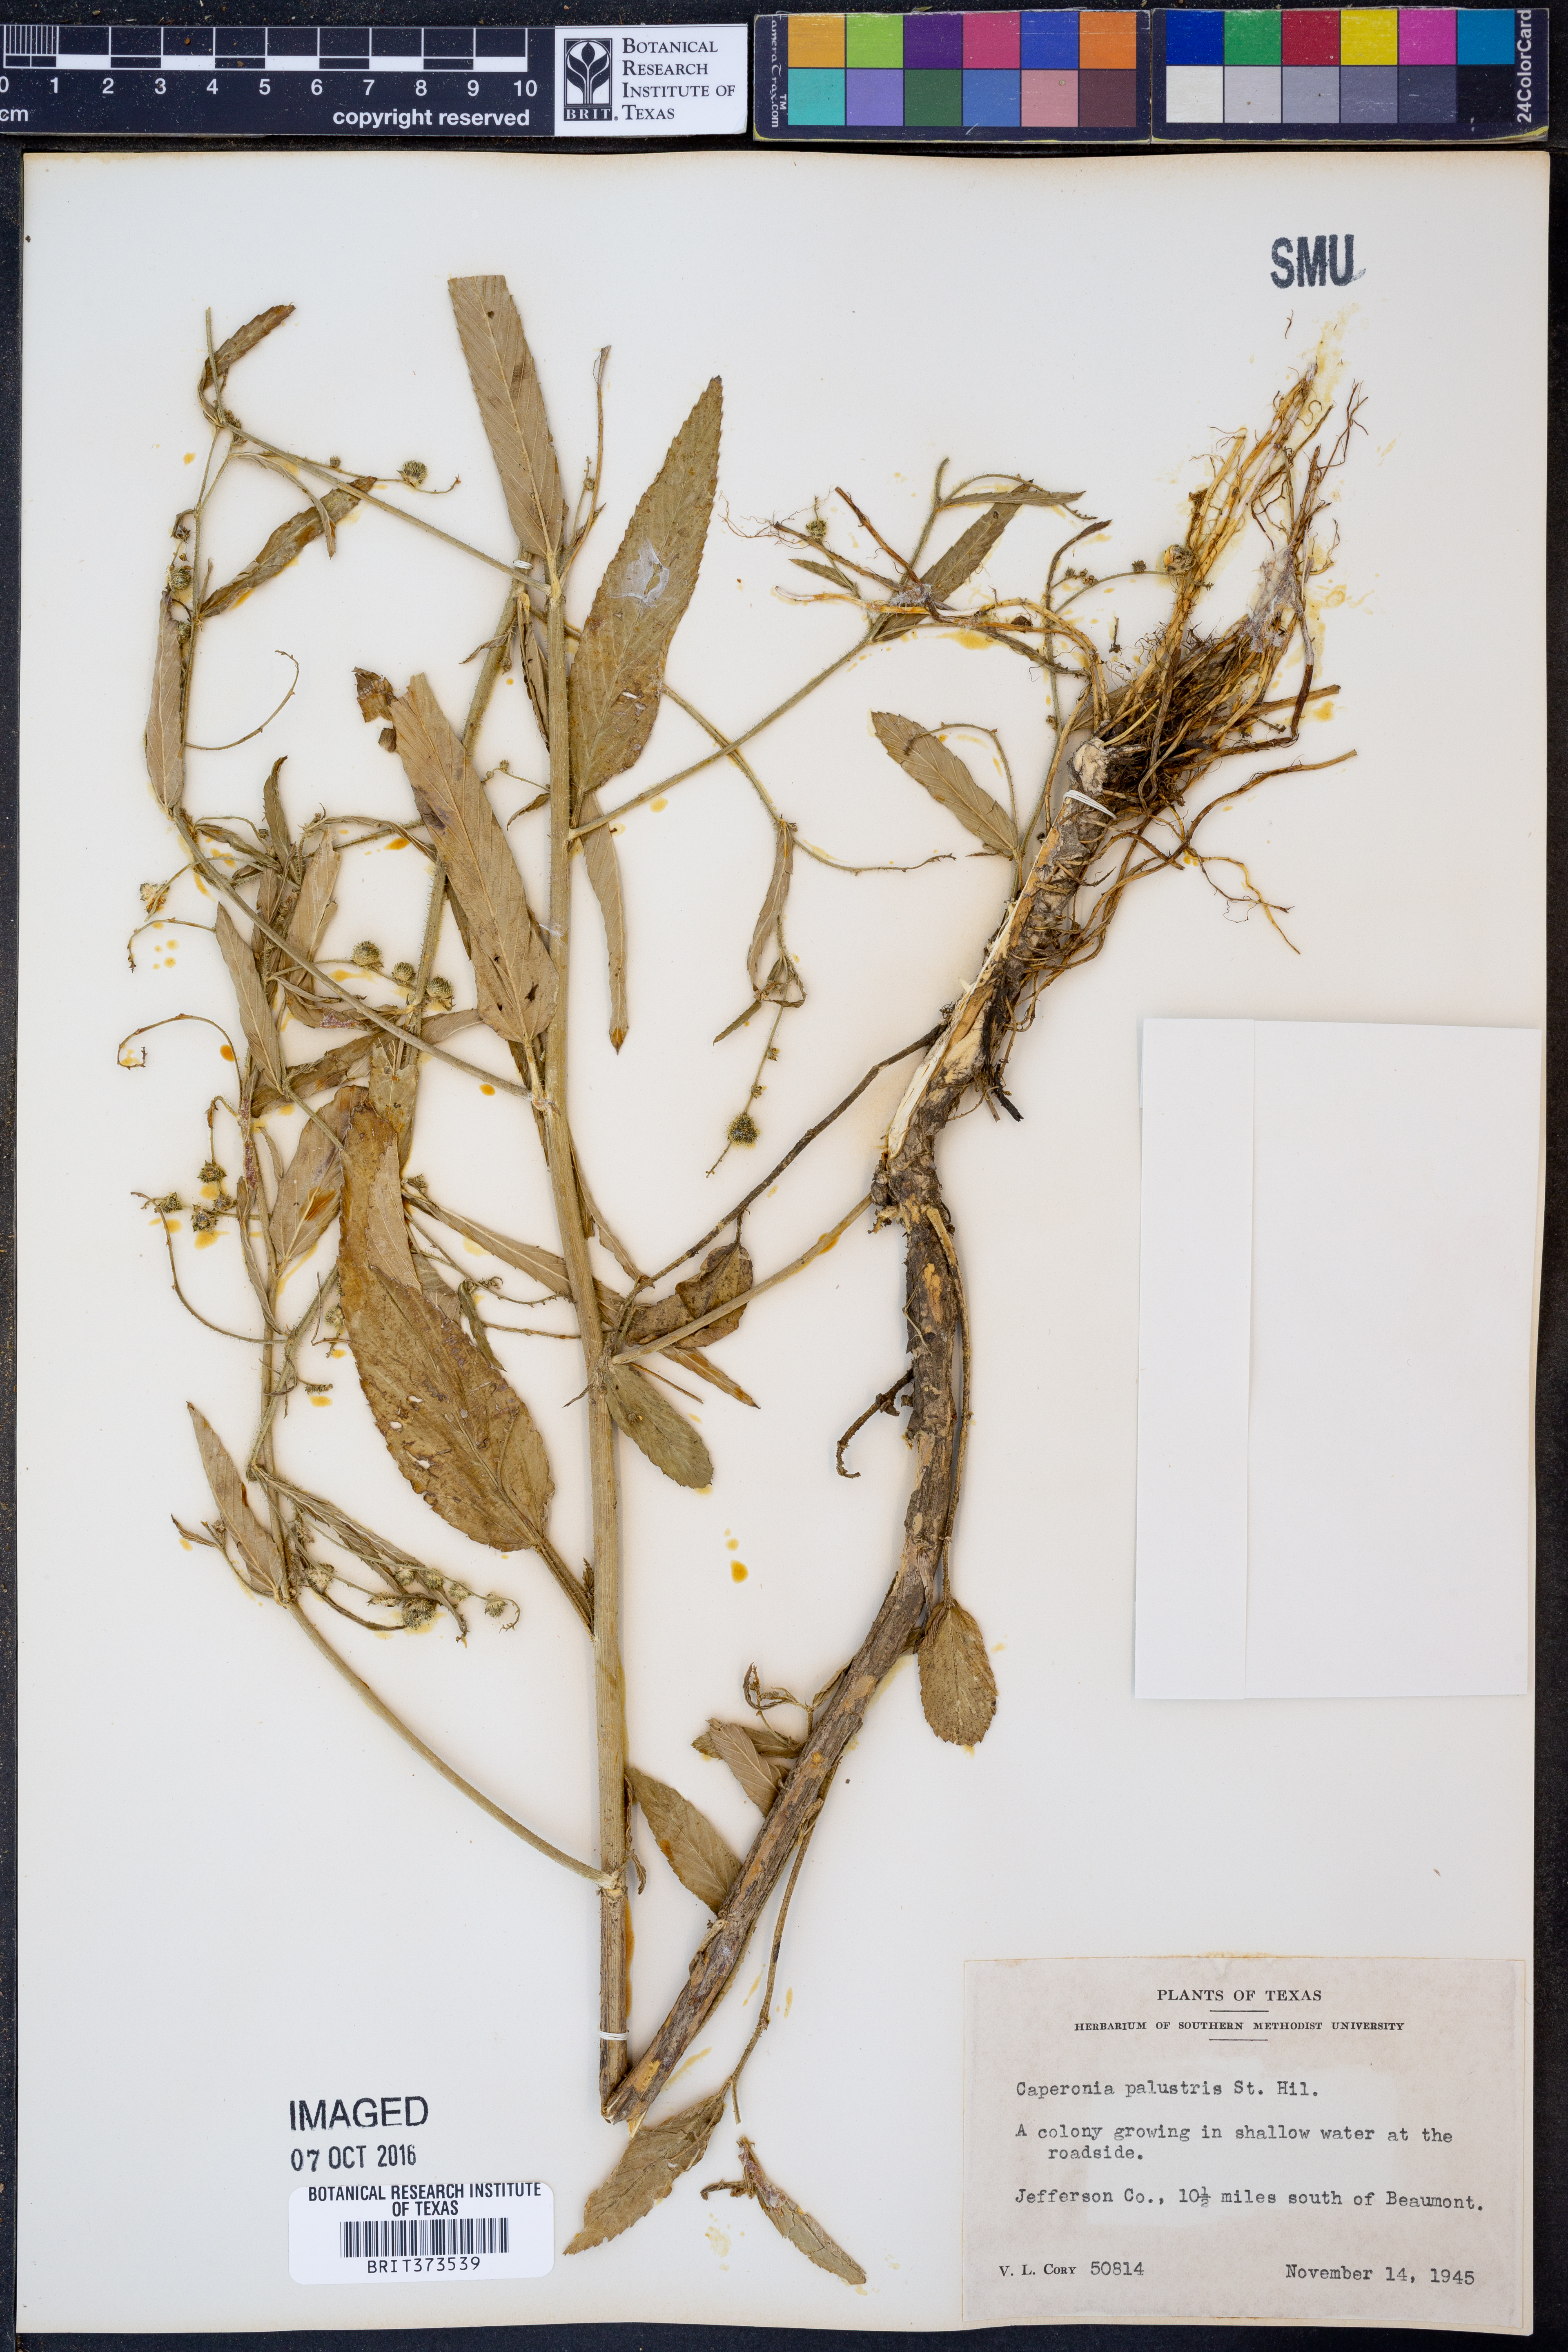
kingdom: Plantae
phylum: Tracheophyta
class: Magnoliopsida
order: Malpighiales
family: Euphorbiaceae
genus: Caperonia
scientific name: Caperonia palustris
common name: Sacatrapo
